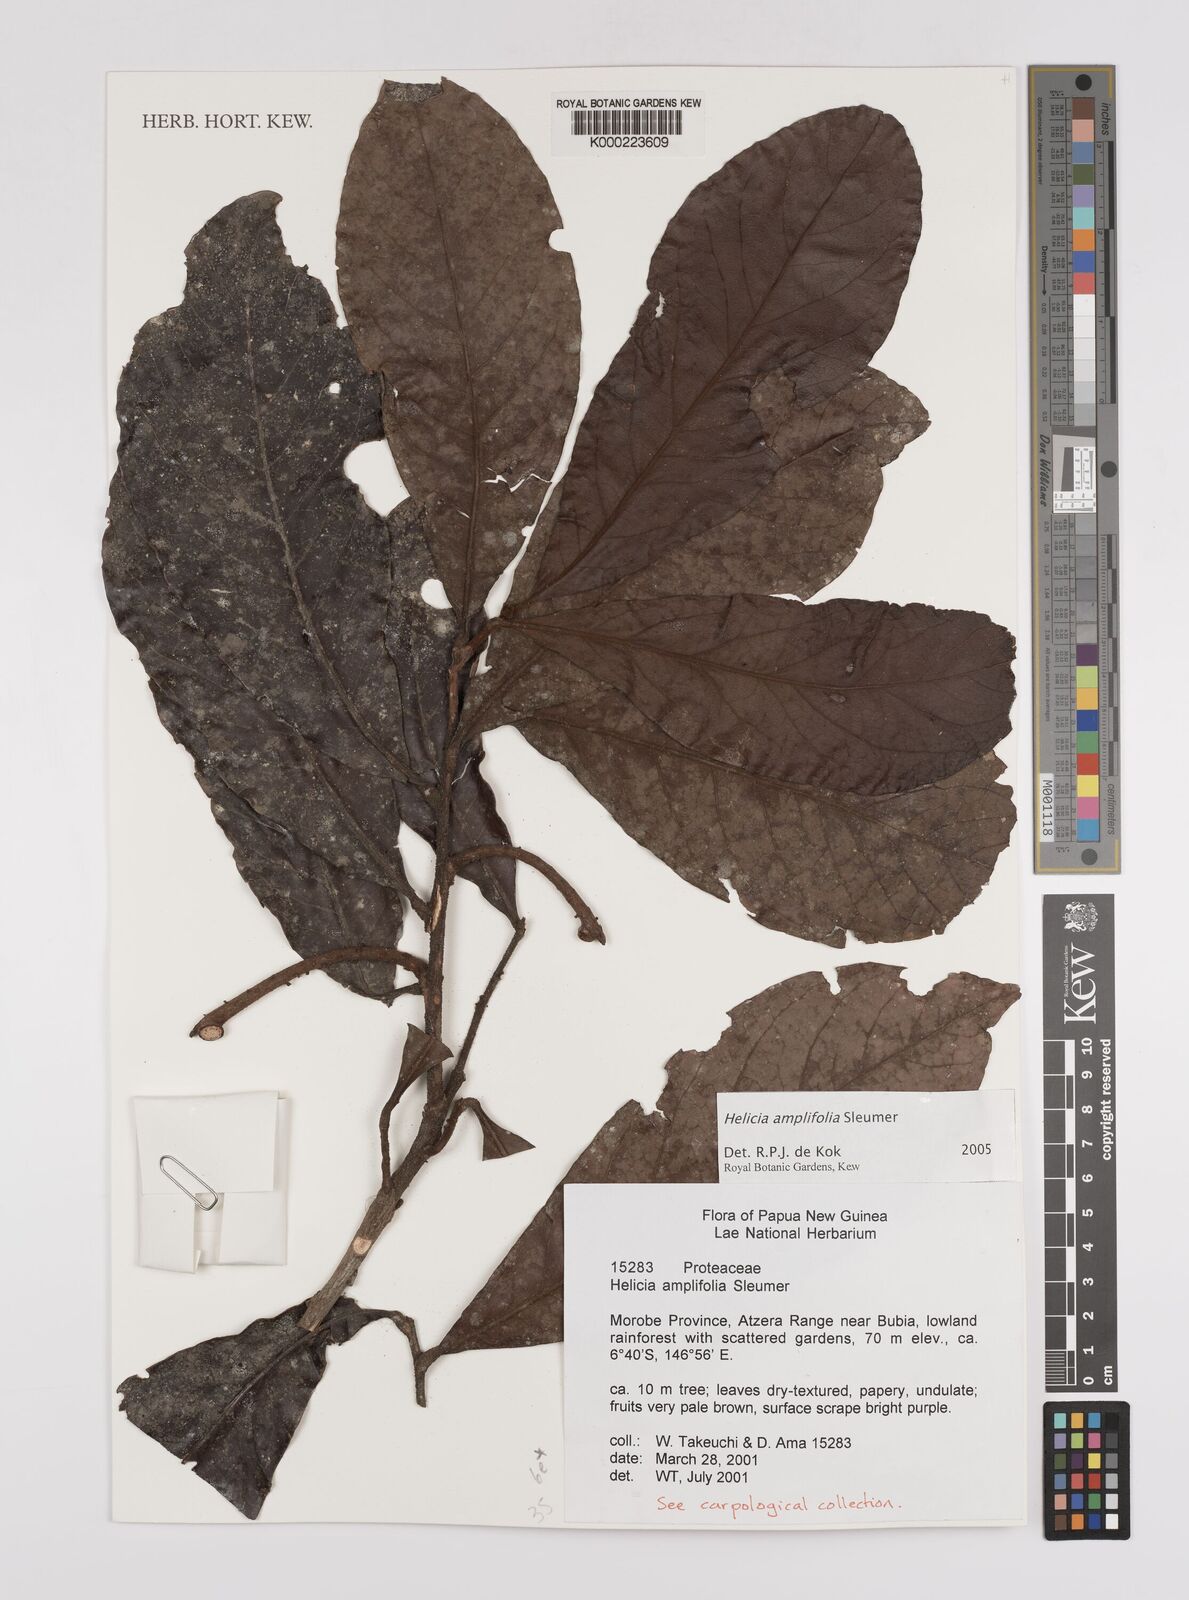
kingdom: Plantae
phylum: Tracheophyta
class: Magnoliopsida
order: Proteales
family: Proteaceae
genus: Helicia
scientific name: Helicia amplifolia
